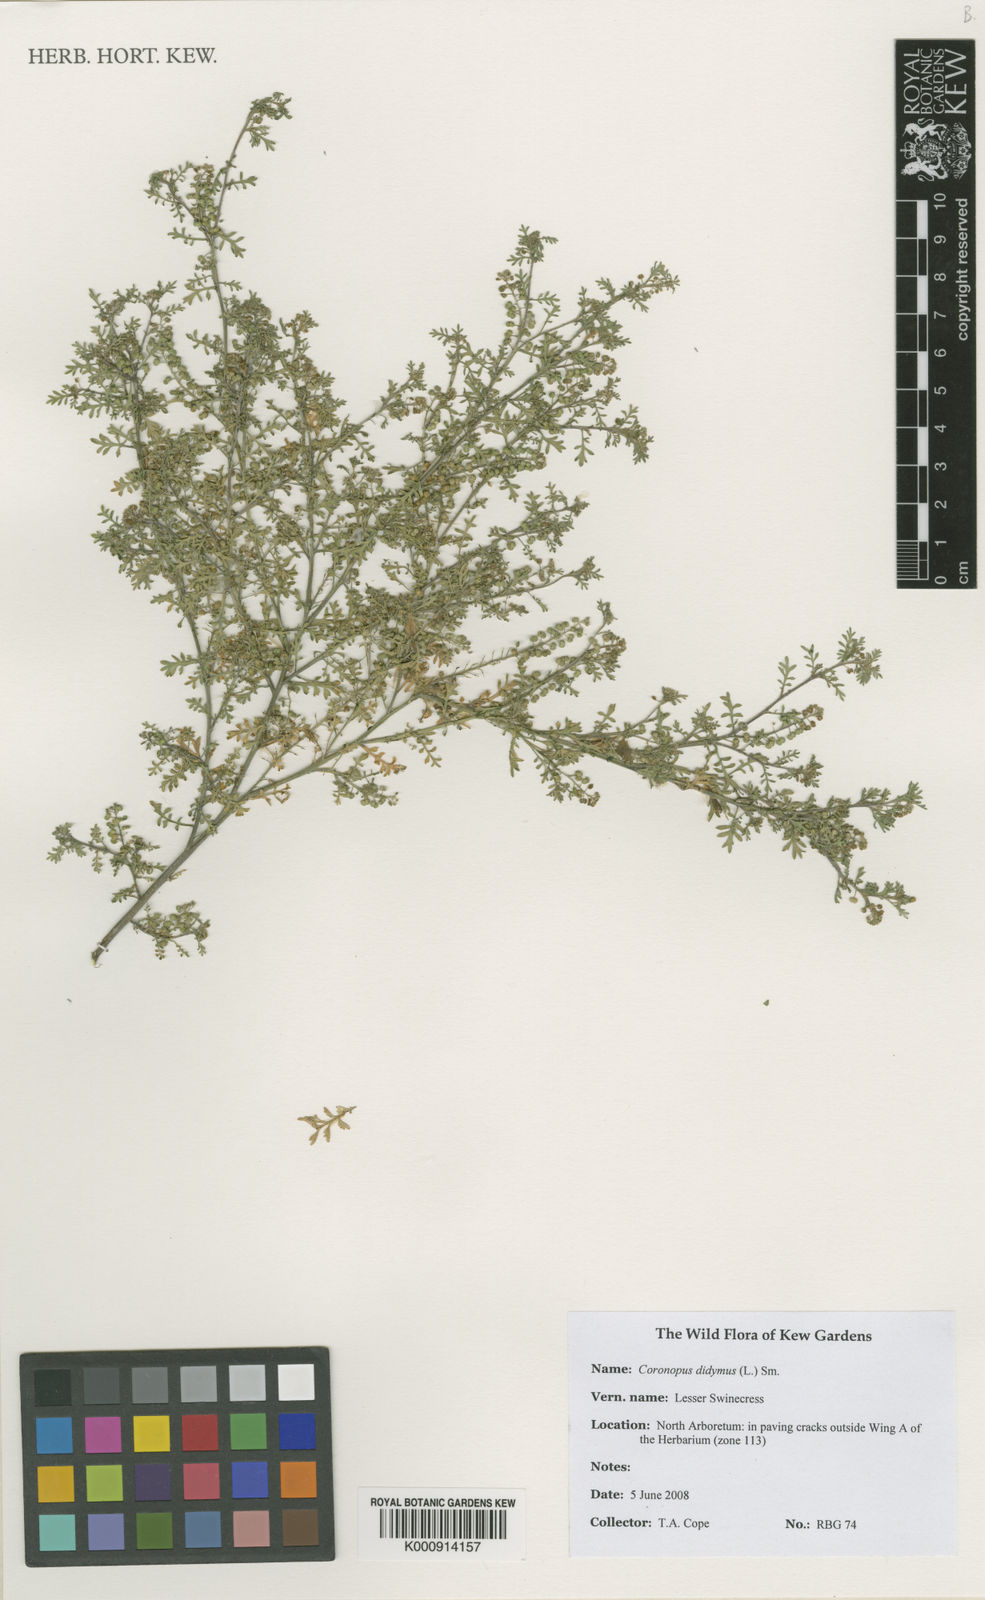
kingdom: Plantae
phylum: Tracheophyta
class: Magnoliopsida
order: Brassicales
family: Brassicaceae
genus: Lepidium
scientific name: Lepidium didymum
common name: Lesser swinecress
